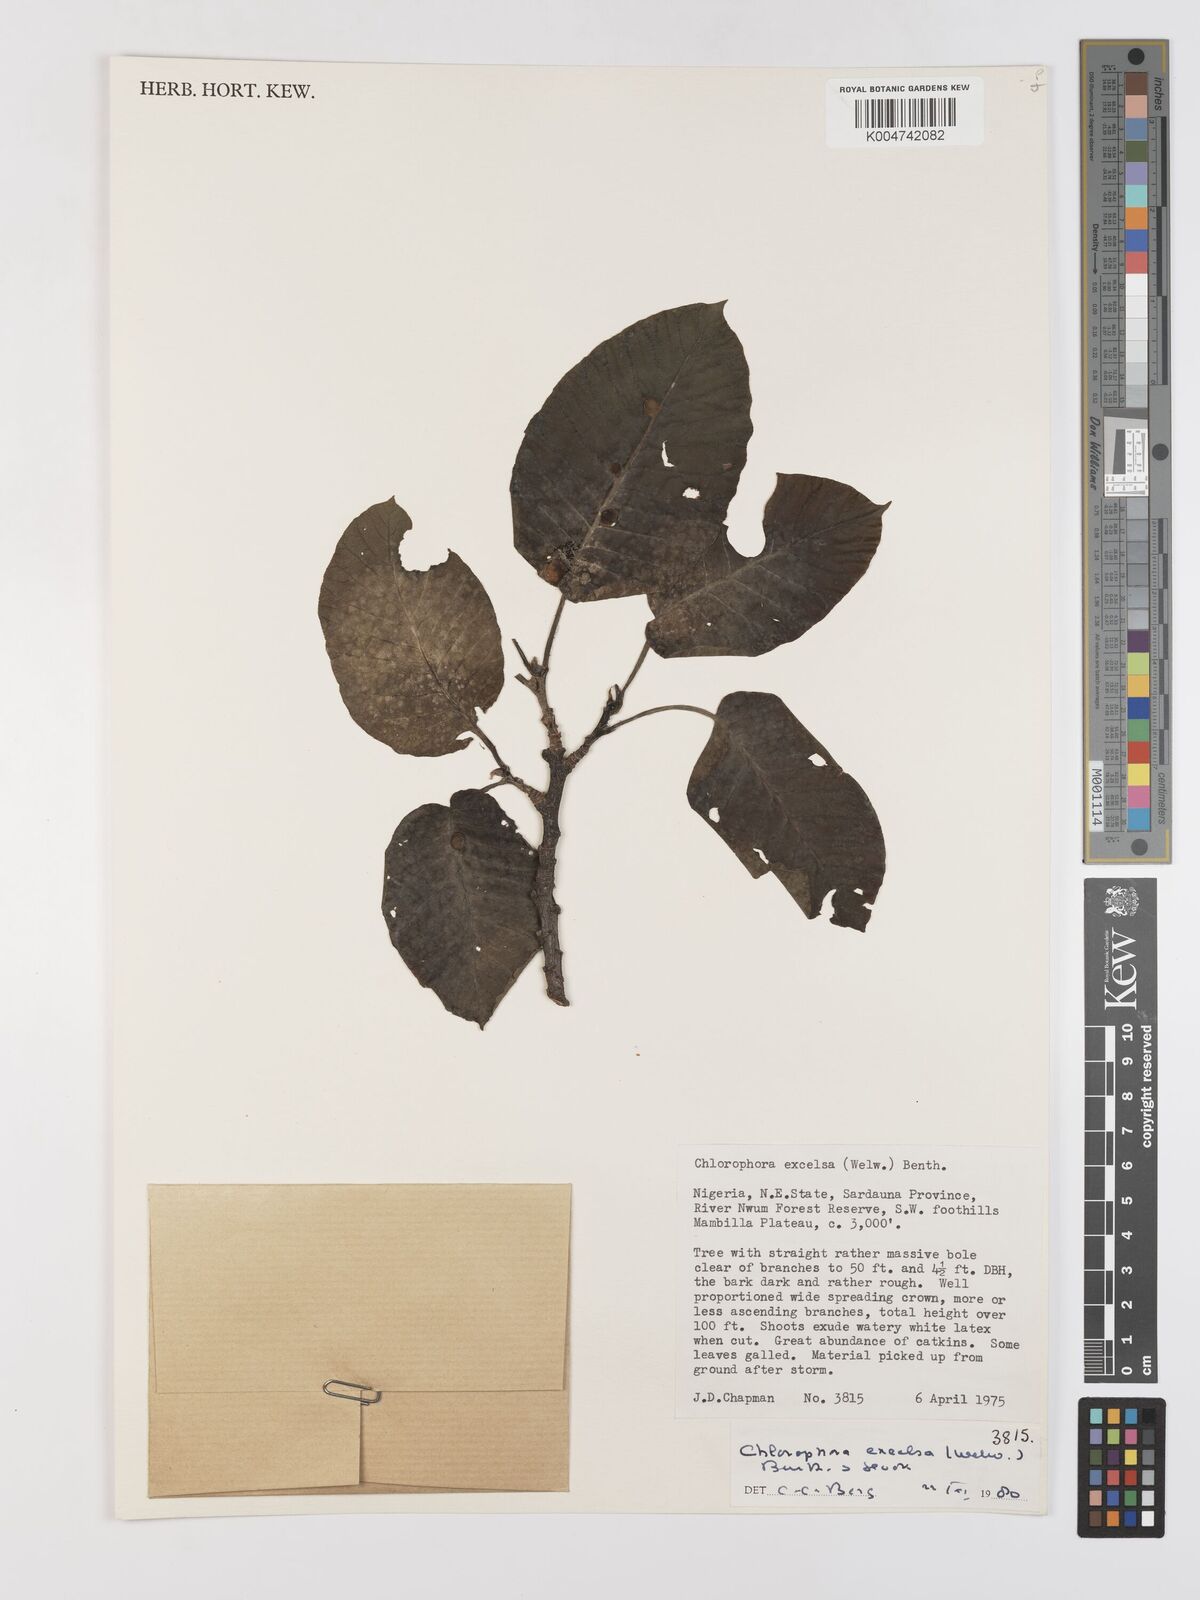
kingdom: Plantae
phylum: Tracheophyta
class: Magnoliopsida
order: Rosales
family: Moraceae
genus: Milicia
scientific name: Milicia excelsa
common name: African teak
